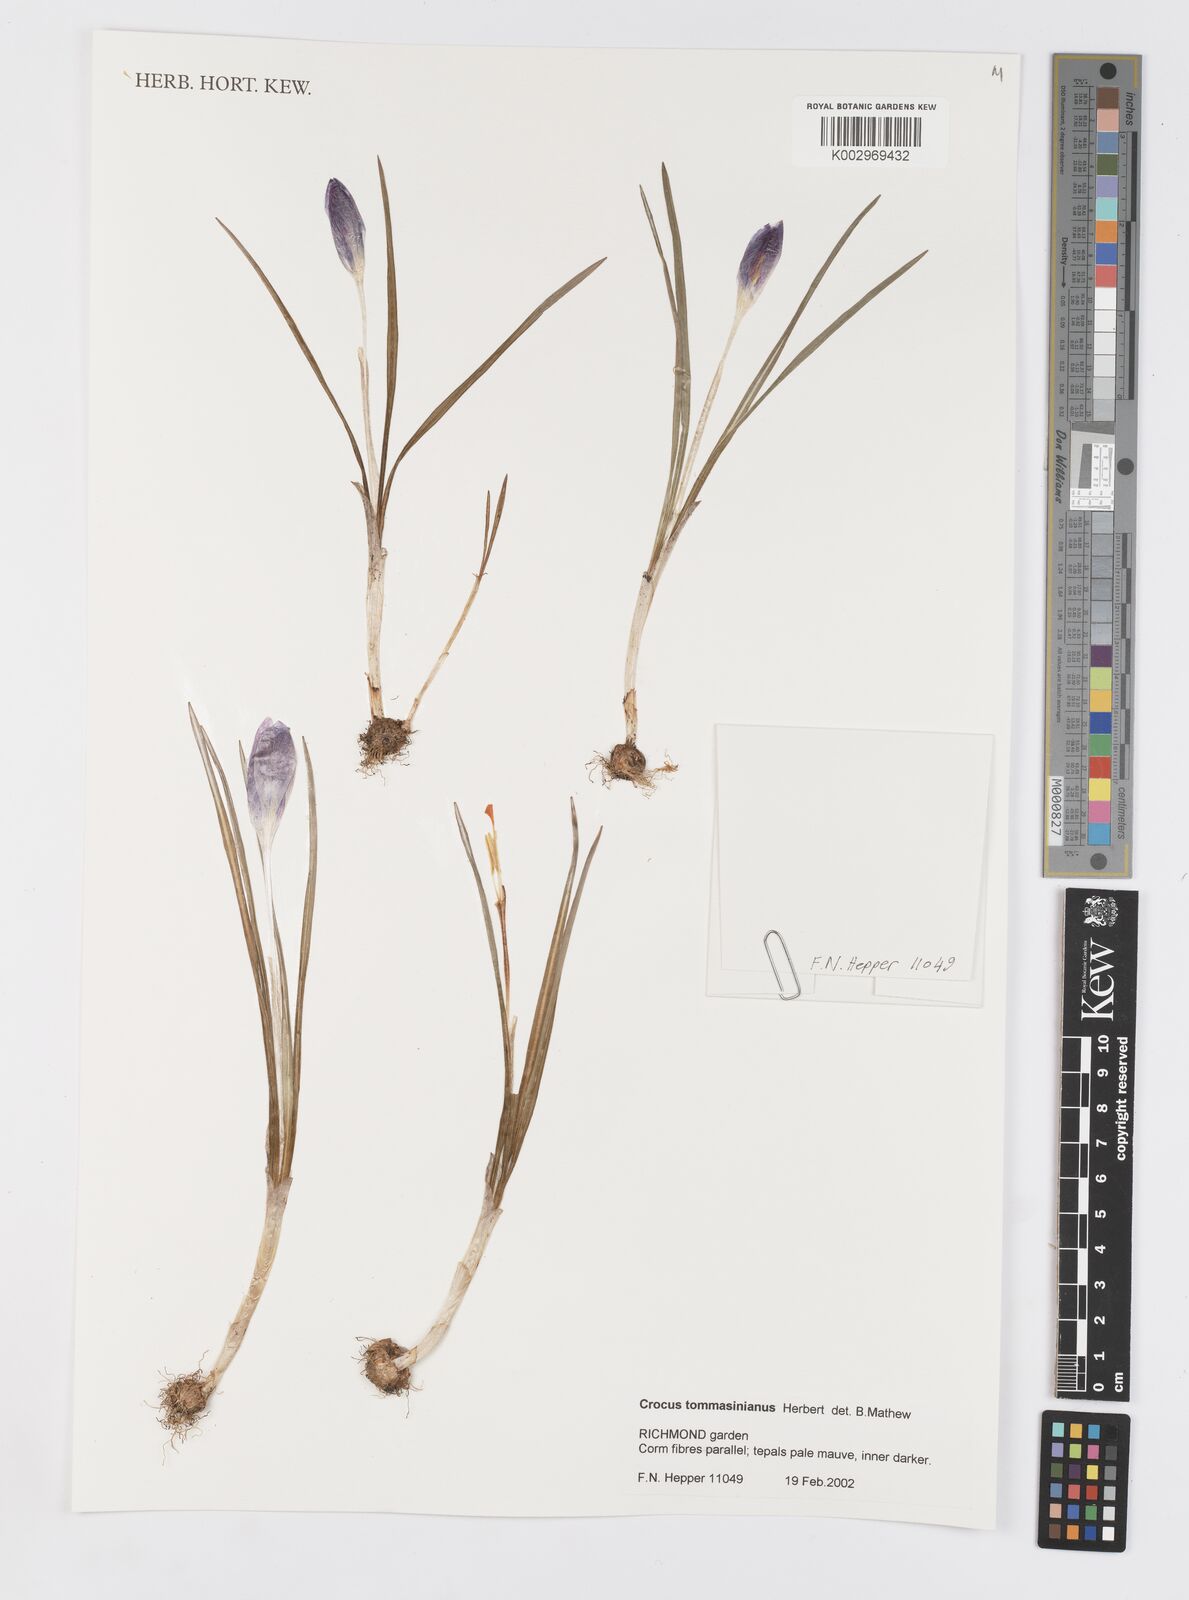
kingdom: Plantae
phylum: Tracheophyta
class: Liliopsida
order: Asparagales
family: Iridaceae
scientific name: Iridaceae
